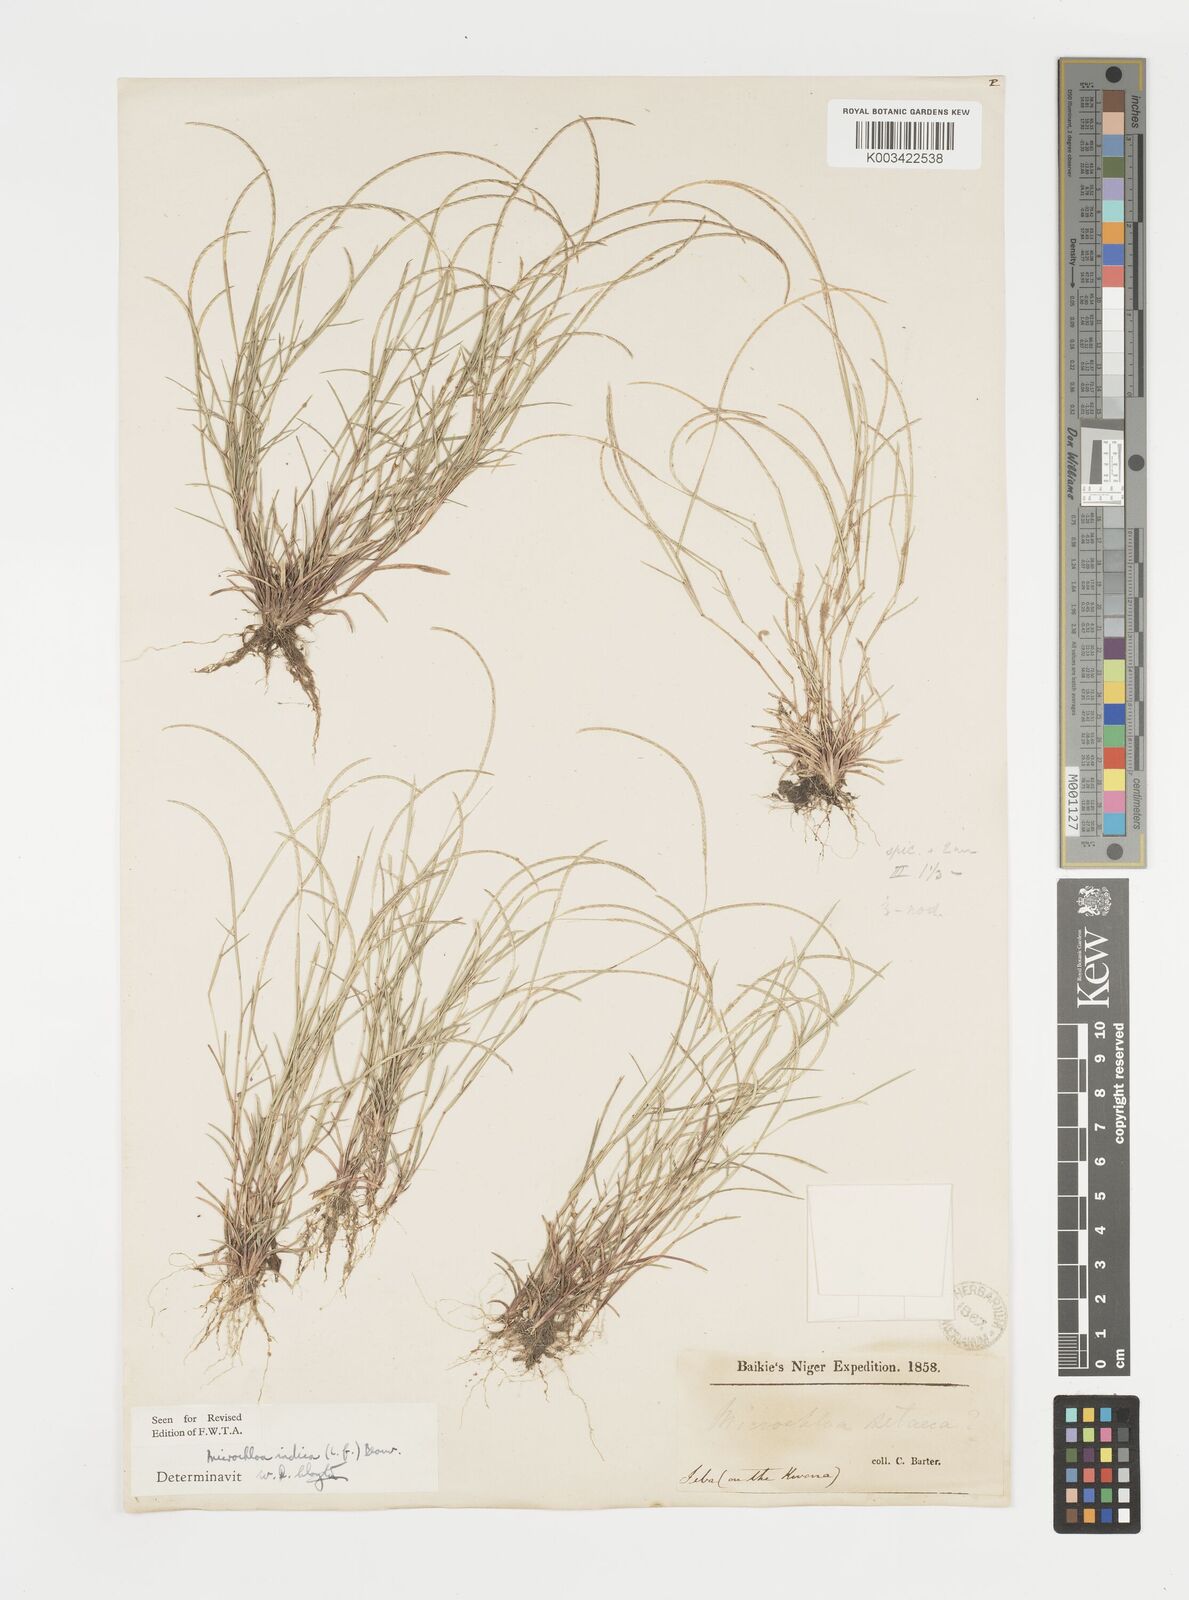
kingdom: Plantae
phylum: Tracheophyta
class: Liliopsida
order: Poales
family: Poaceae
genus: Microchloa
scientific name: Microchloa indica
